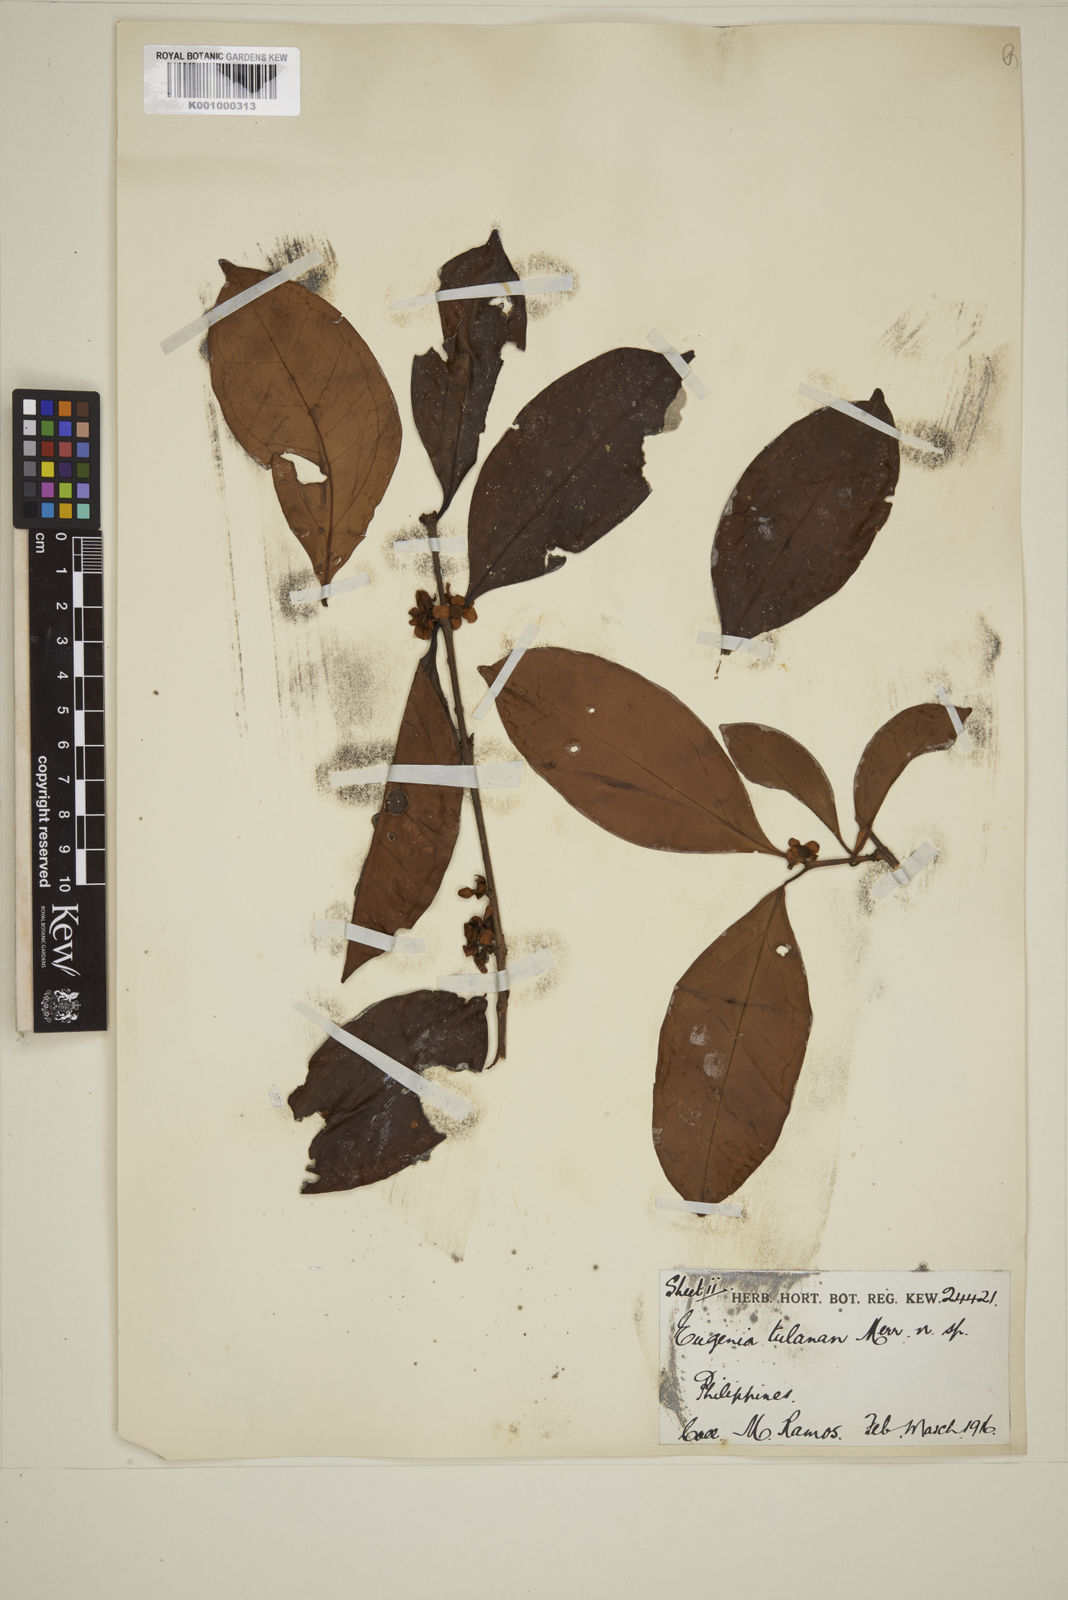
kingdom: Plantae
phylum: Tracheophyta
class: Magnoliopsida
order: Myrtales
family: Myrtaceae
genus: Eugenia
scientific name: Eugenia tulanan
